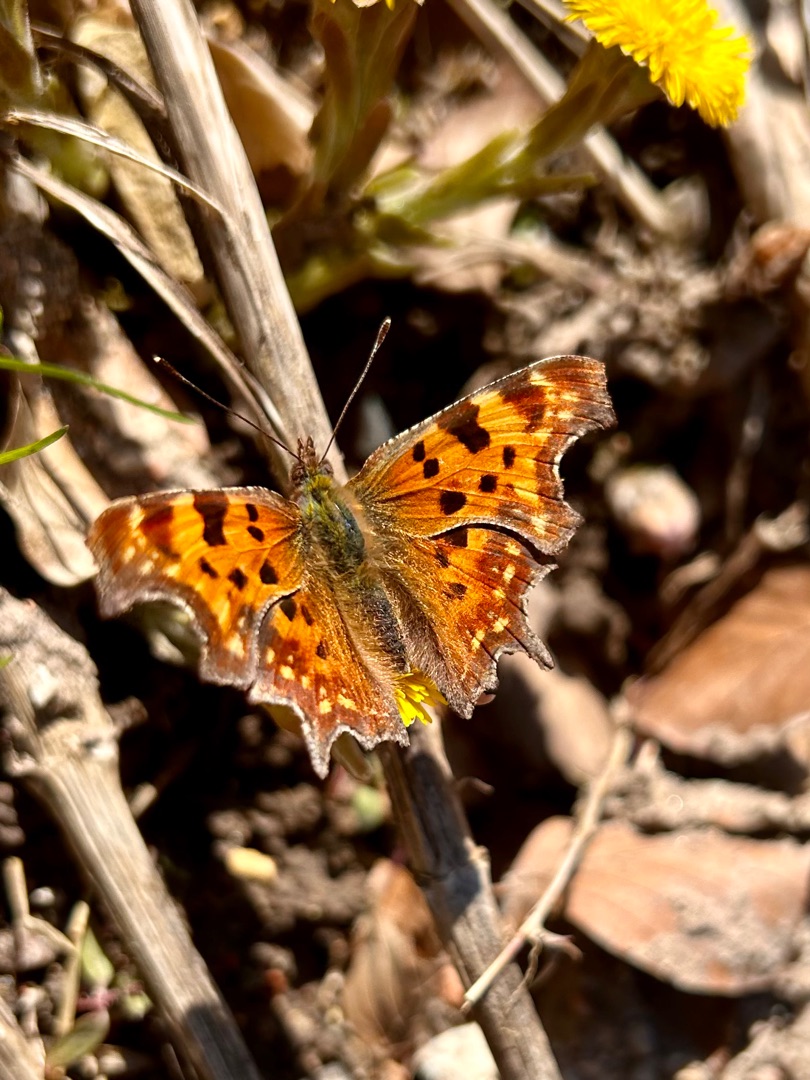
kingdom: Animalia
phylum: Arthropoda
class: Insecta
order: Lepidoptera
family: Nymphalidae
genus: Polygonia
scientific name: Polygonia c-album
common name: Det hvide C
